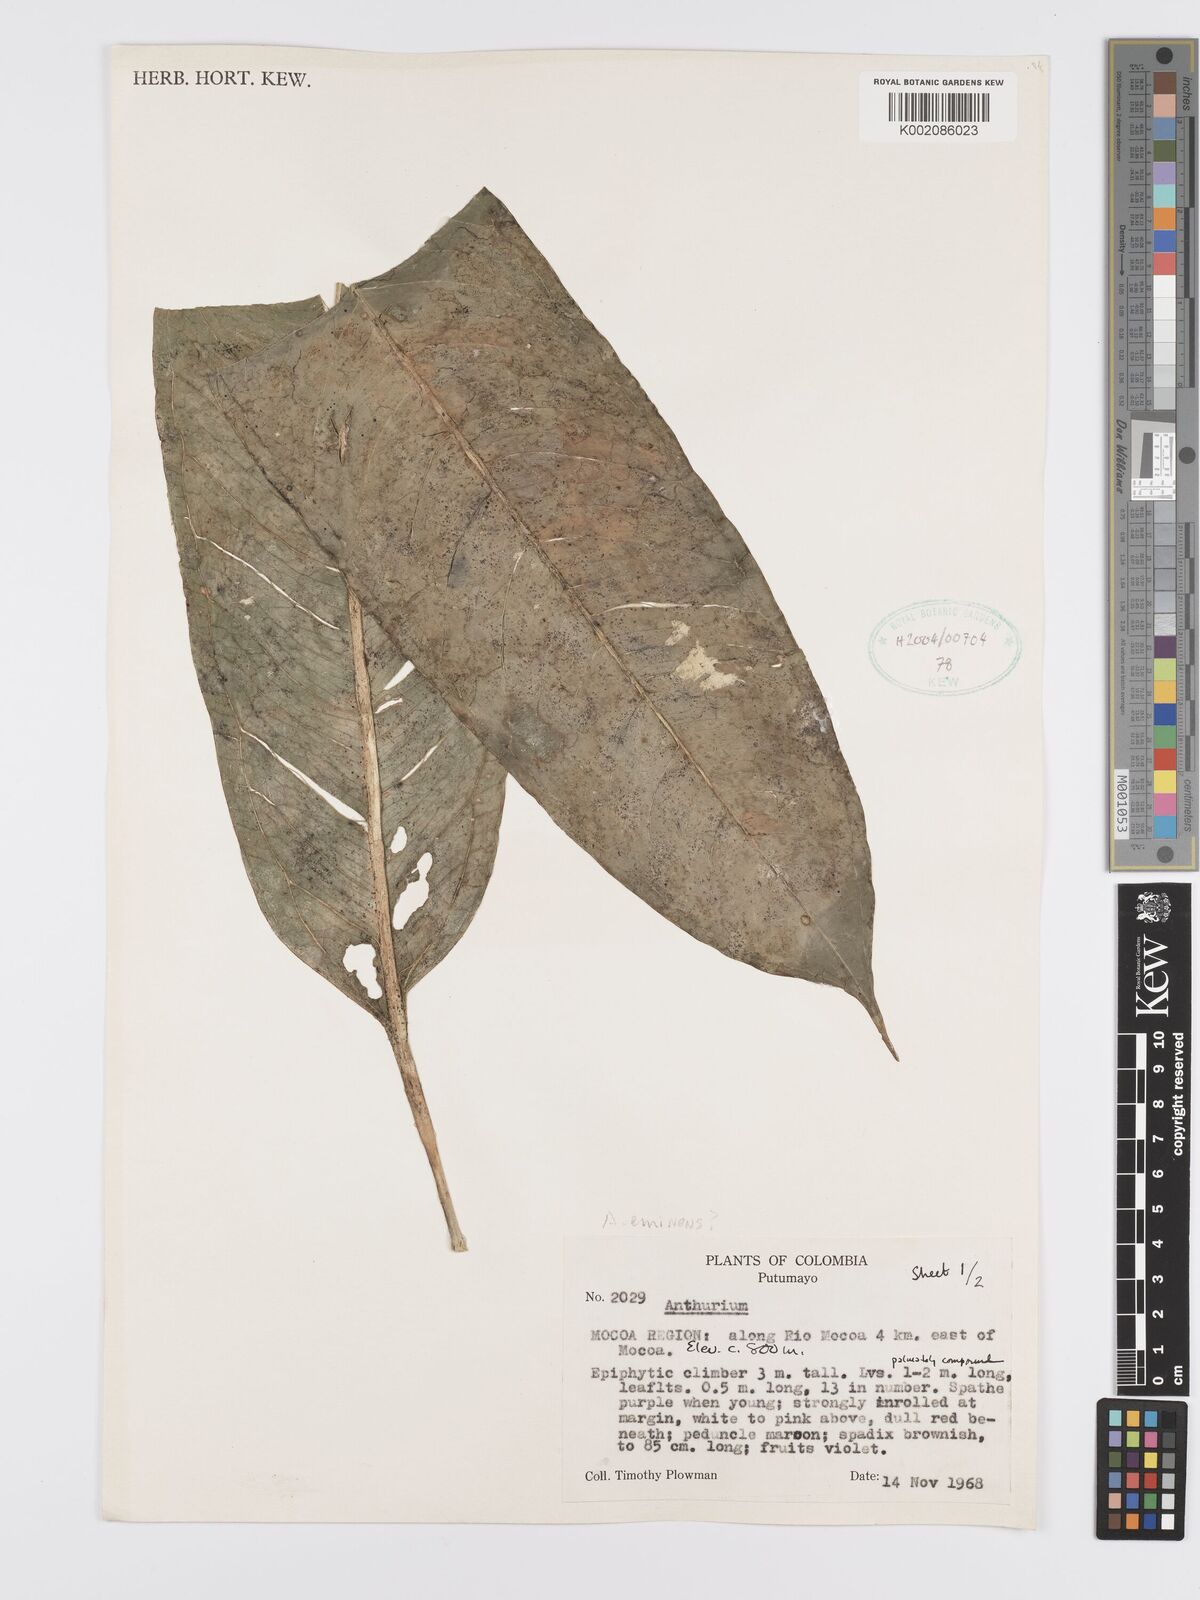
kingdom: Plantae
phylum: Tracheophyta
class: Liliopsida
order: Alismatales
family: Araceae
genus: Anthurium
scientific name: Anthurium eminens
